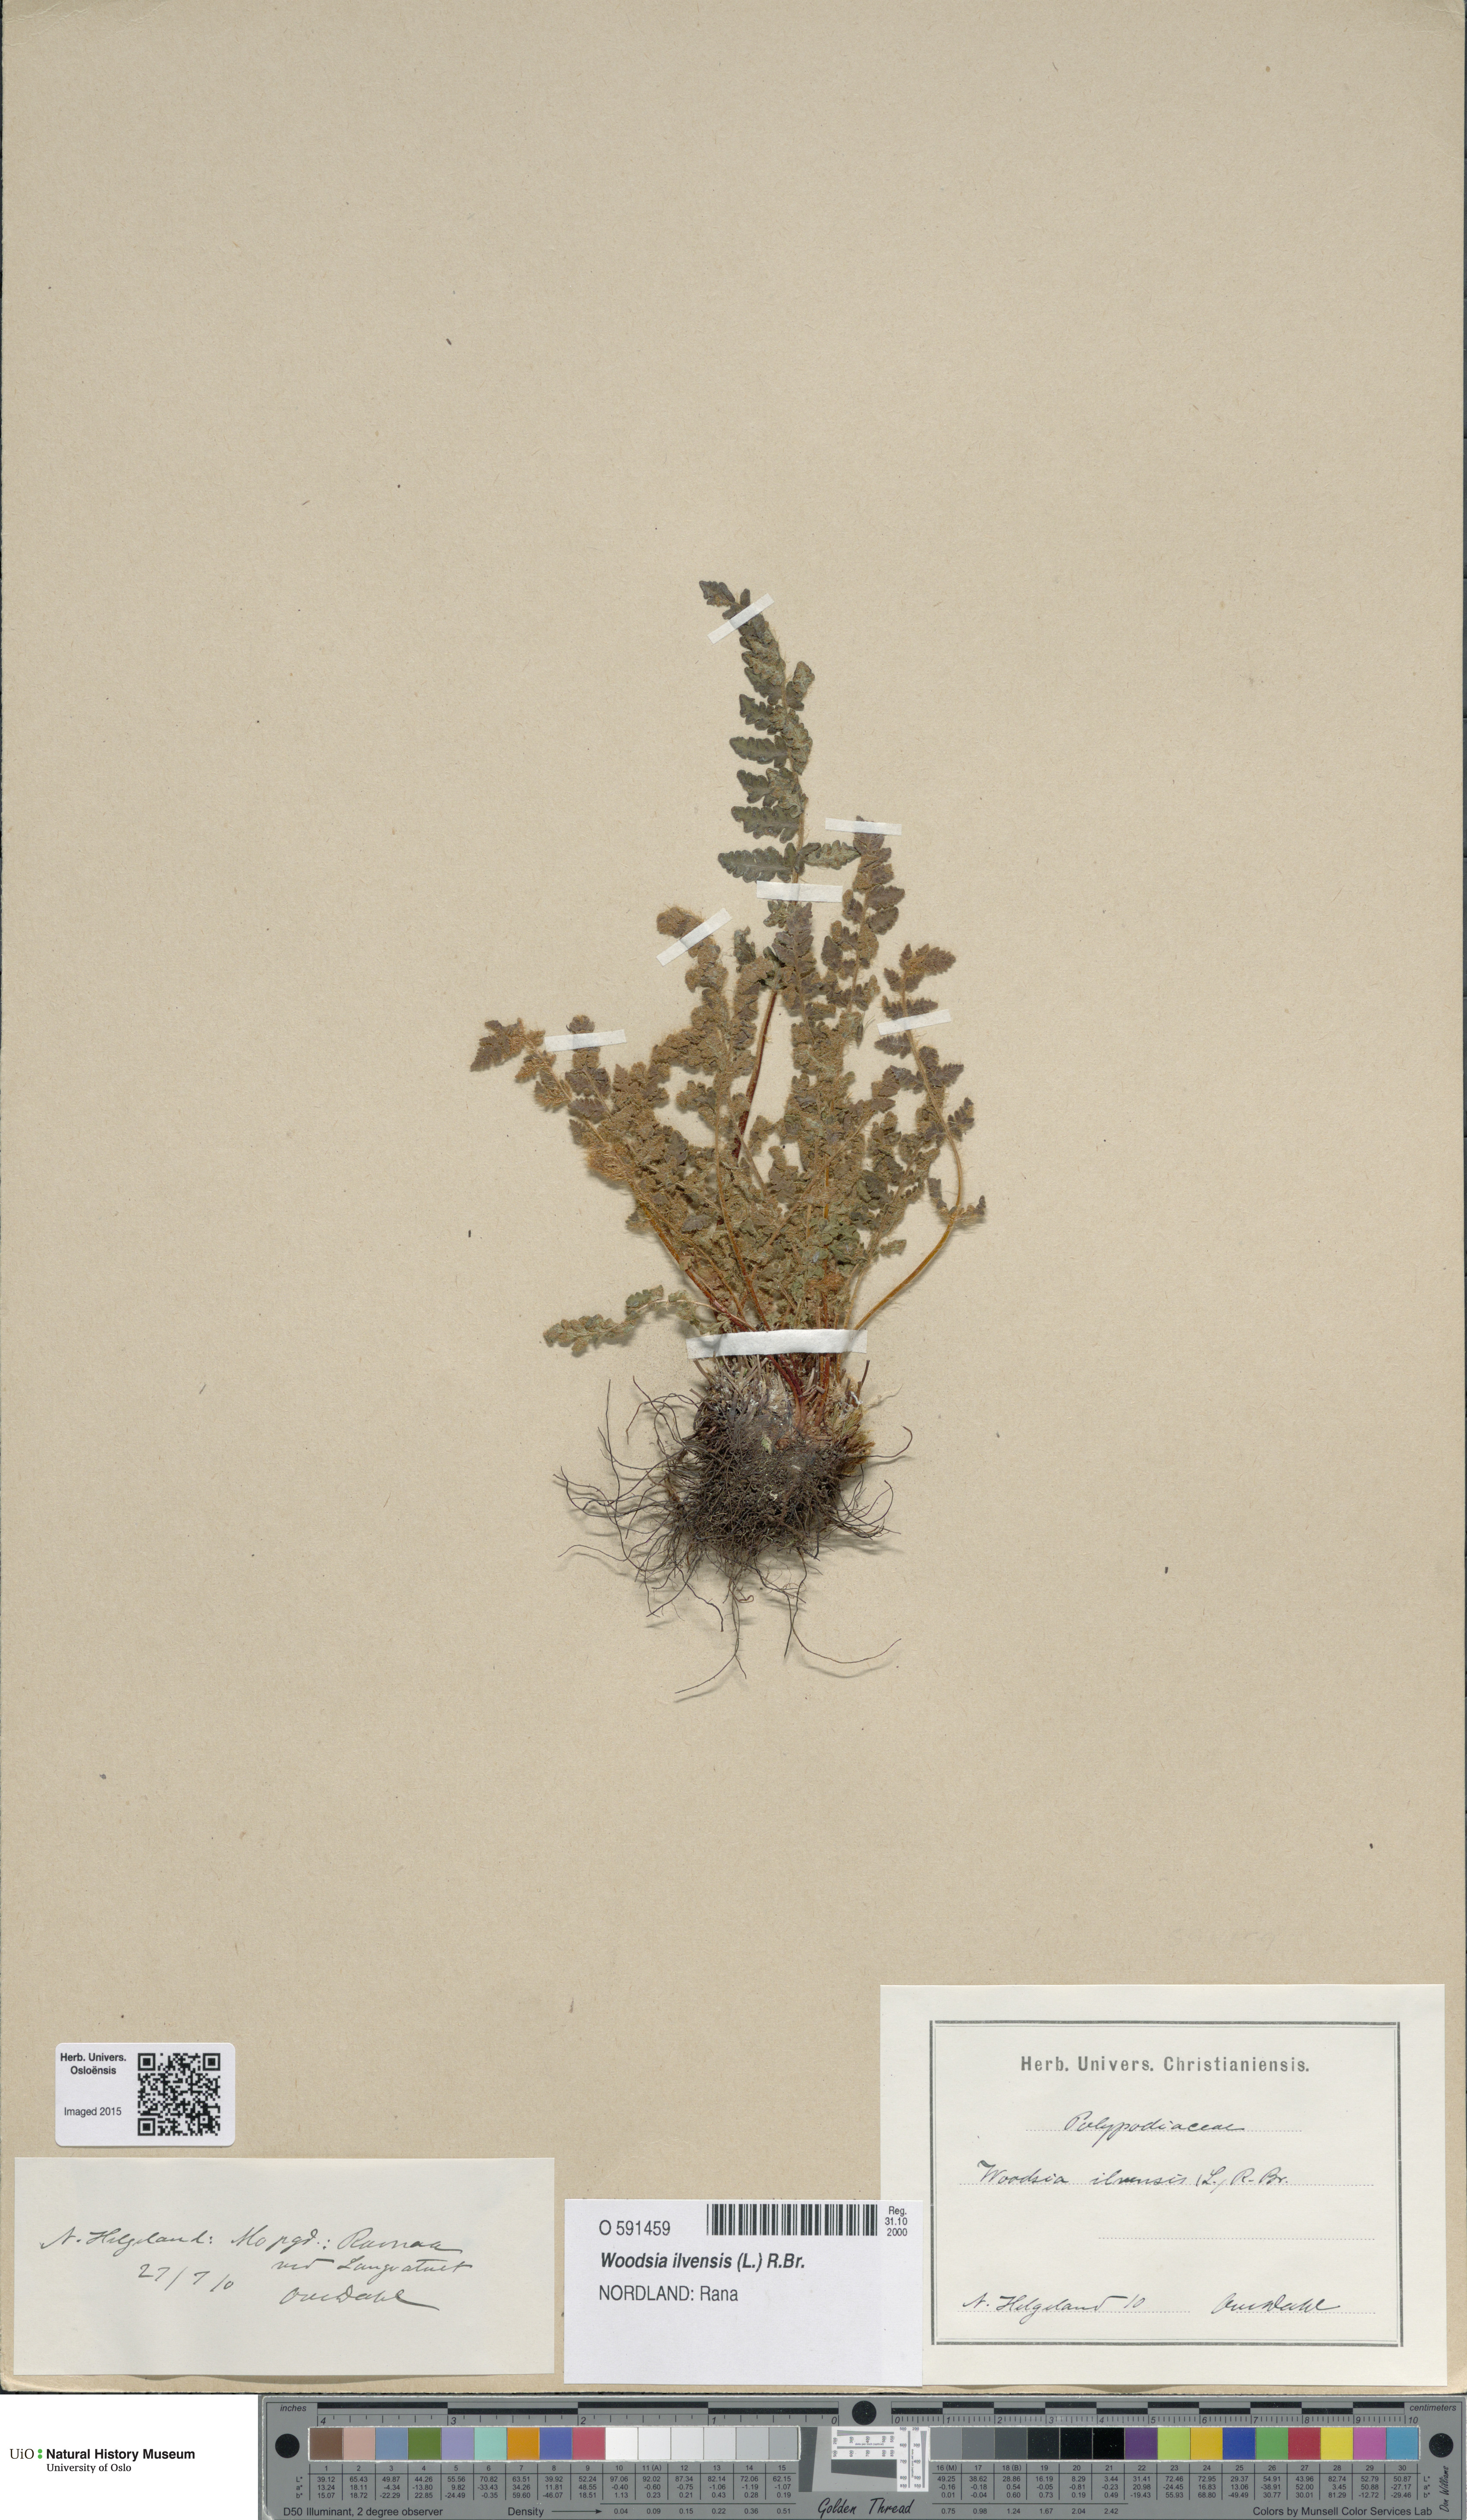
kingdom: Plantae
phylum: Tracheophyta
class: Polypodiopsida
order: Polypodiales
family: Woodsiaceae
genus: Woodsia
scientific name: Woodsia ilvensis
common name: Fragrant woodsia
